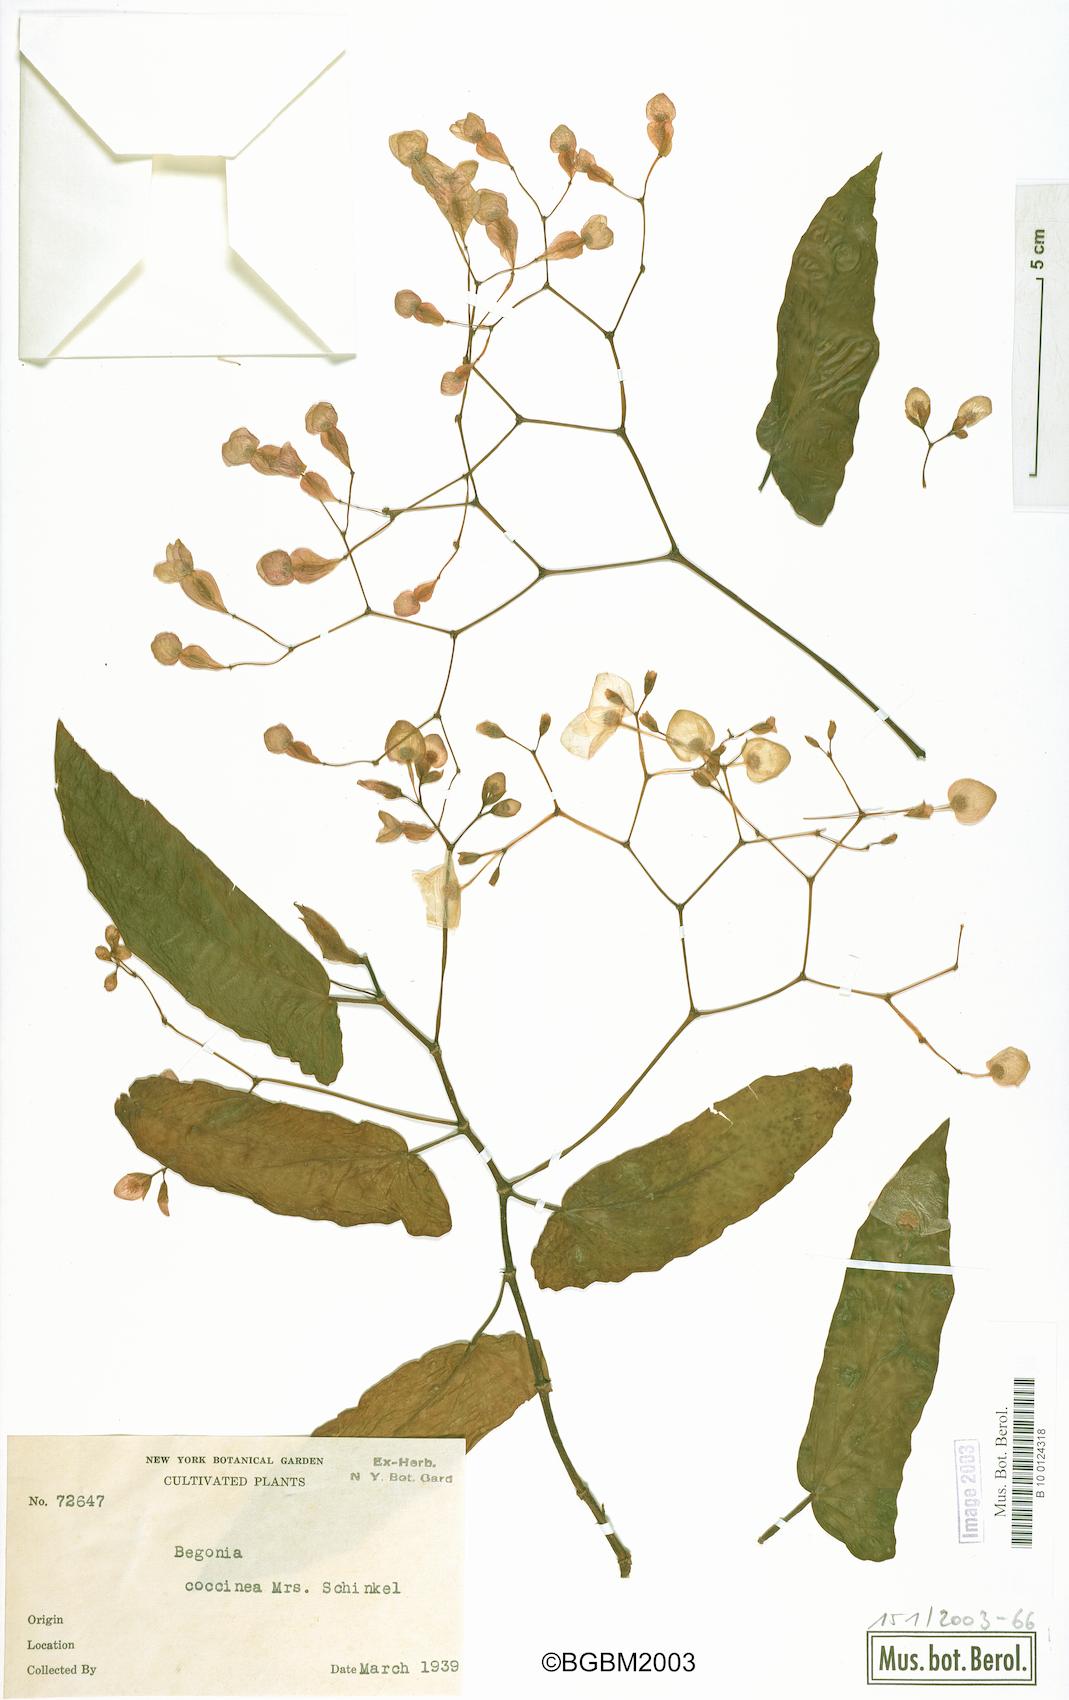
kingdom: Plantae
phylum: Tracheophyta
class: Magnoliopsida
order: Cucurbitales
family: Begoniaceae
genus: Begonia
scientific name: Begonia coccinea
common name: Angel-wing begonia
